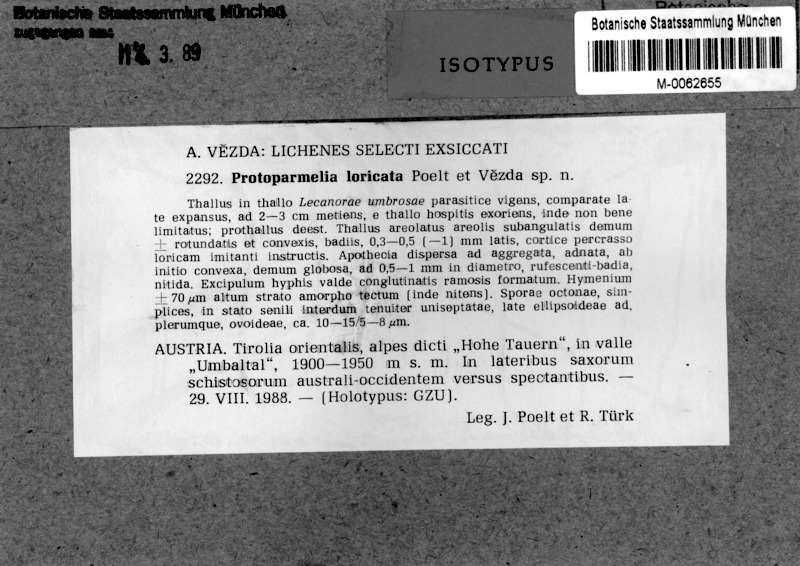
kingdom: Fungi
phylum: Ascomycota
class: Lecanoromycetes
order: Lecanorales
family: Parmeliaceae
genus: Protoparmelia
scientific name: Protoparmelia loricata
